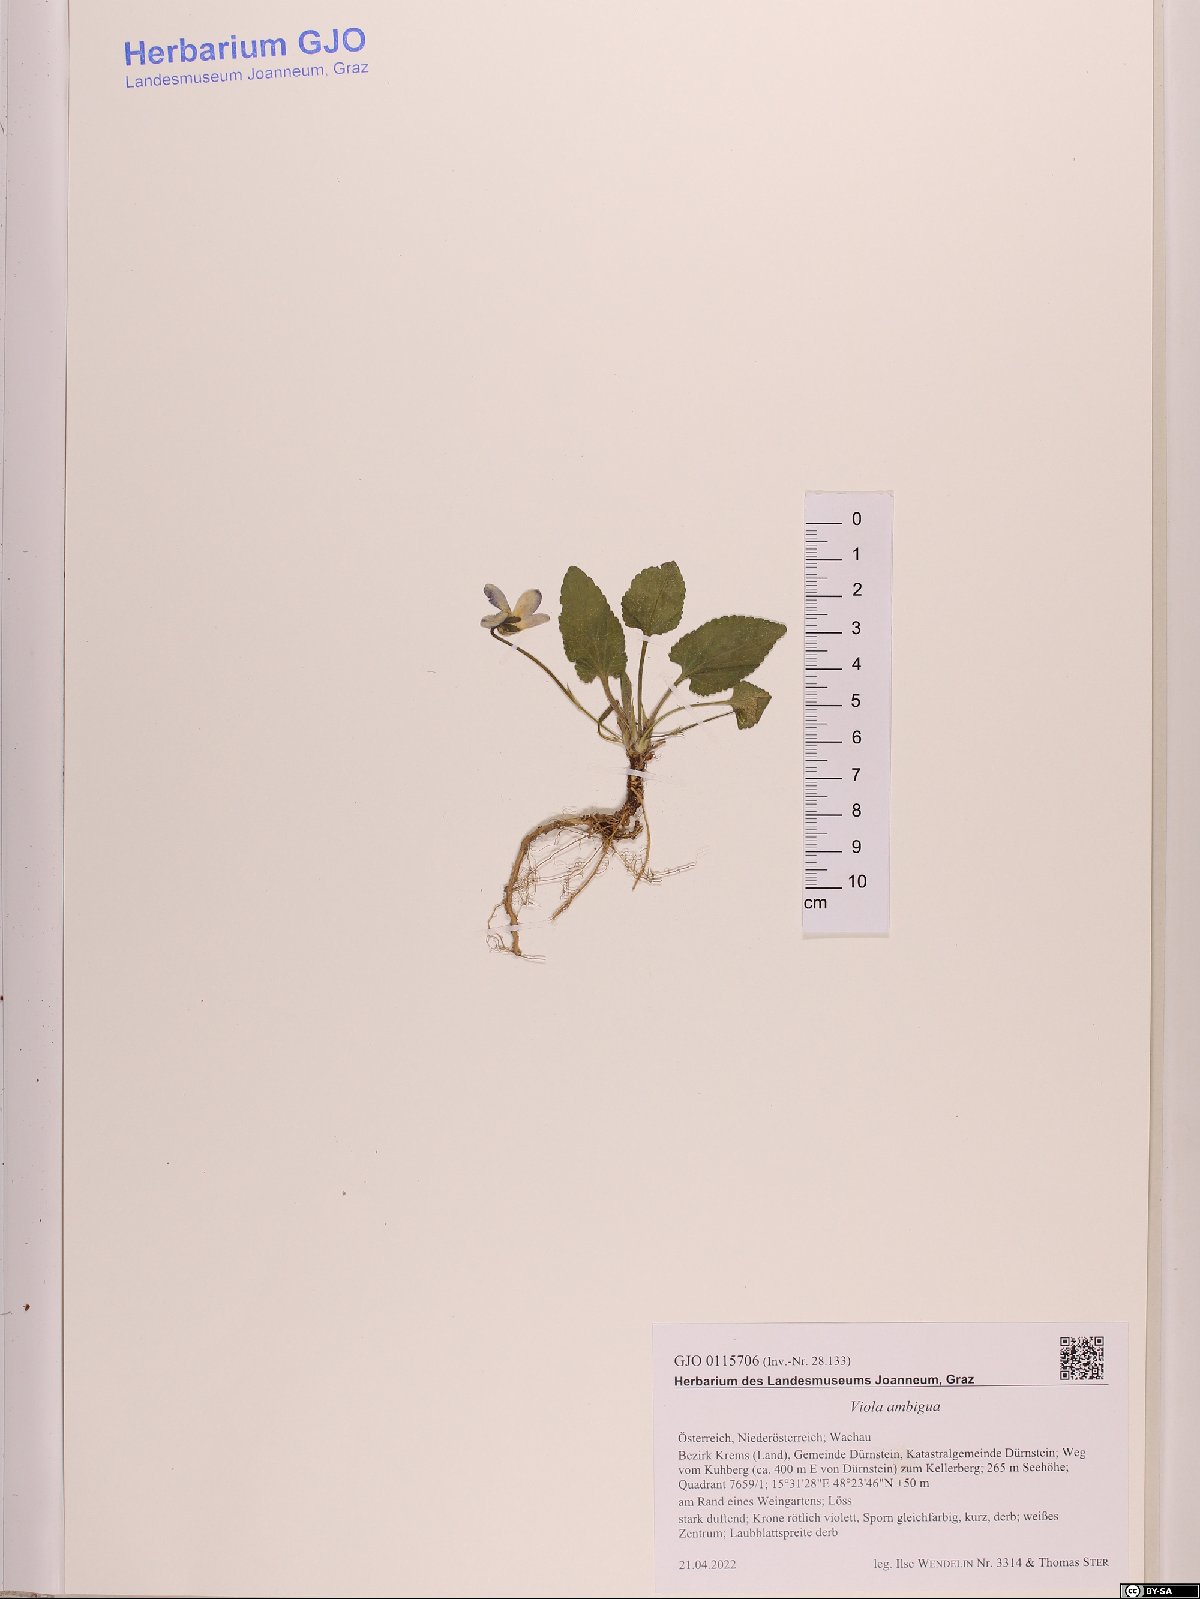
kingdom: Plantae
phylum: Tracheophyta
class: Magnoliopsida
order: Malpighiales
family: Violaceae
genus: Viola
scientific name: Viola ambigua
